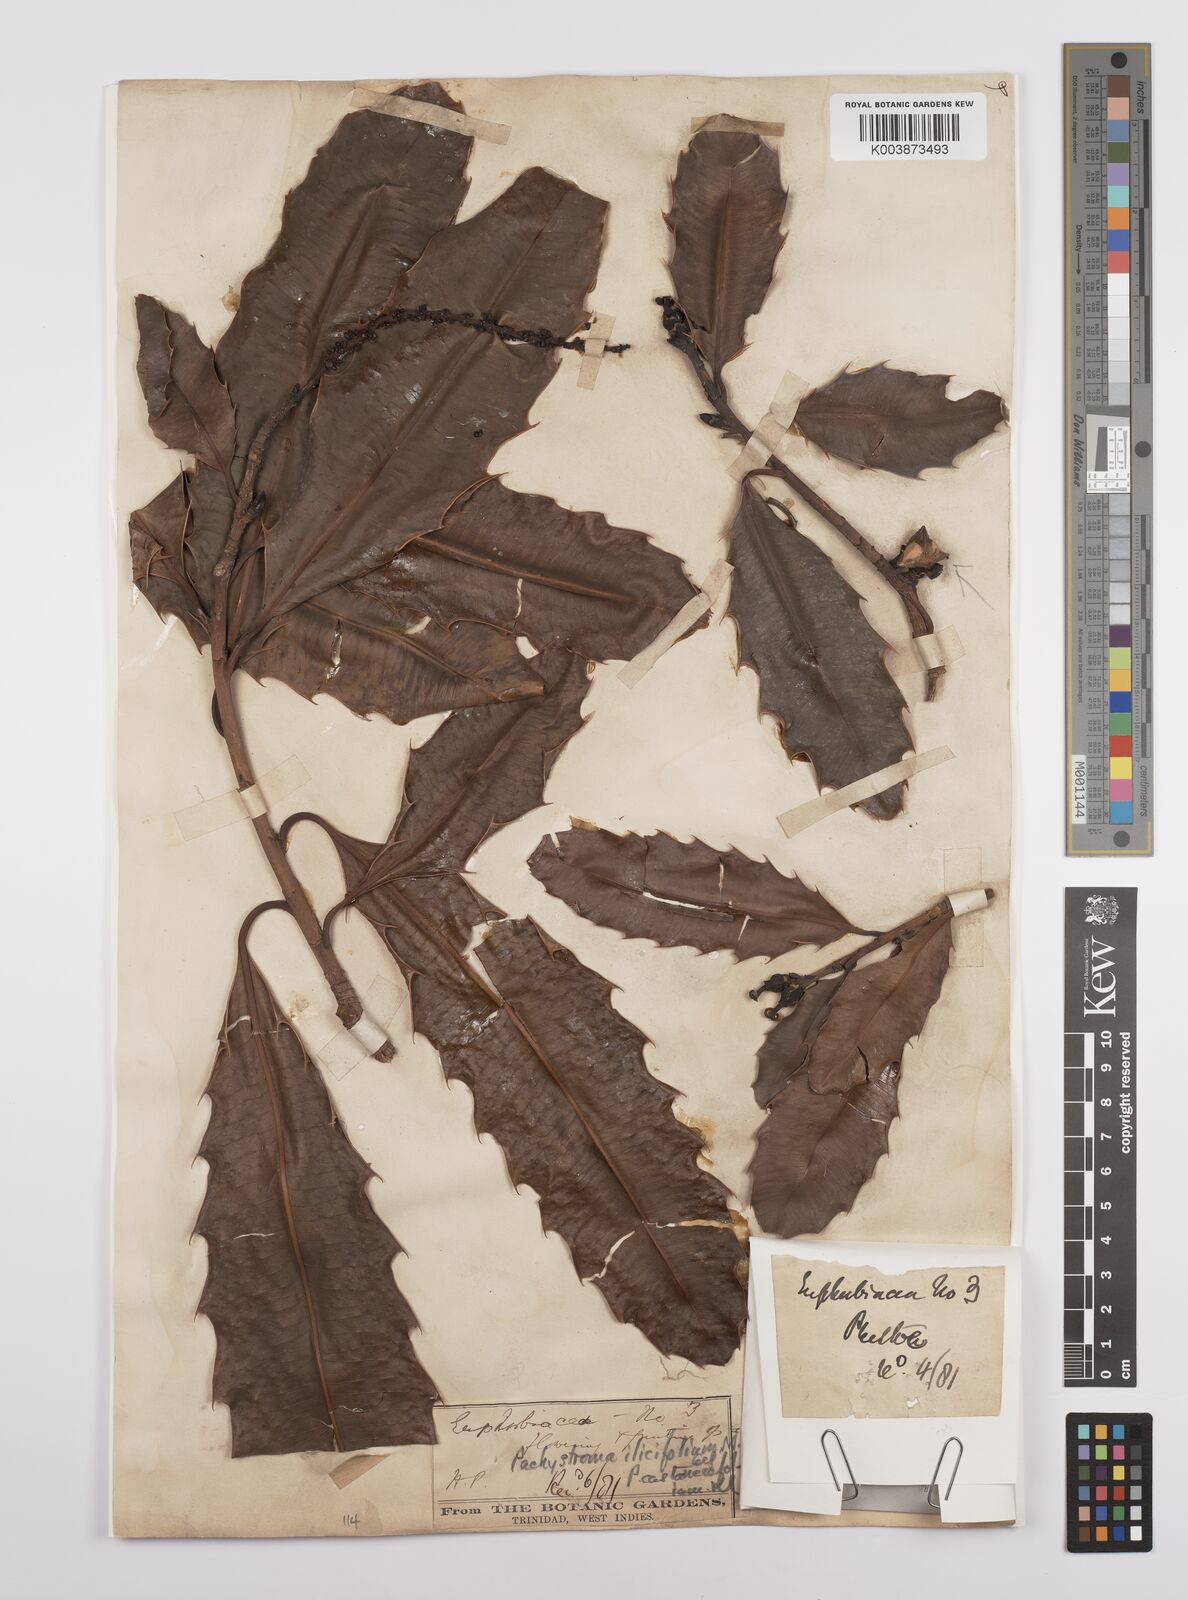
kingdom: Plantae
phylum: Tracheophyta
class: Magnoliopsida
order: Malpighiales
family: Euphorbiaceae
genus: Pachystroma
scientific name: Pachystroma longifolium
